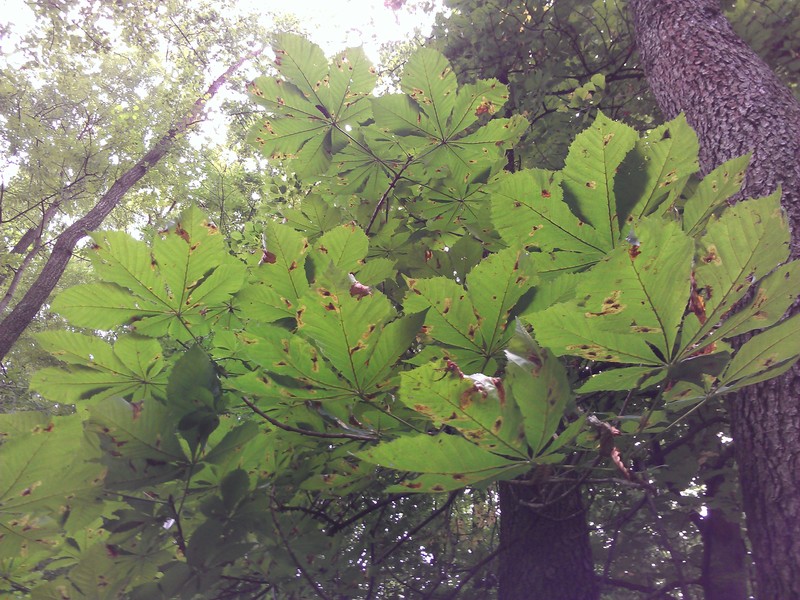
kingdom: Plantae
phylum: Tracheophyta
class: Magnoliopsida
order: Sapindales
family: Sapindaceae
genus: Aesculus
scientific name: Aesculus hippocastanum
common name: Horse-chestnut
